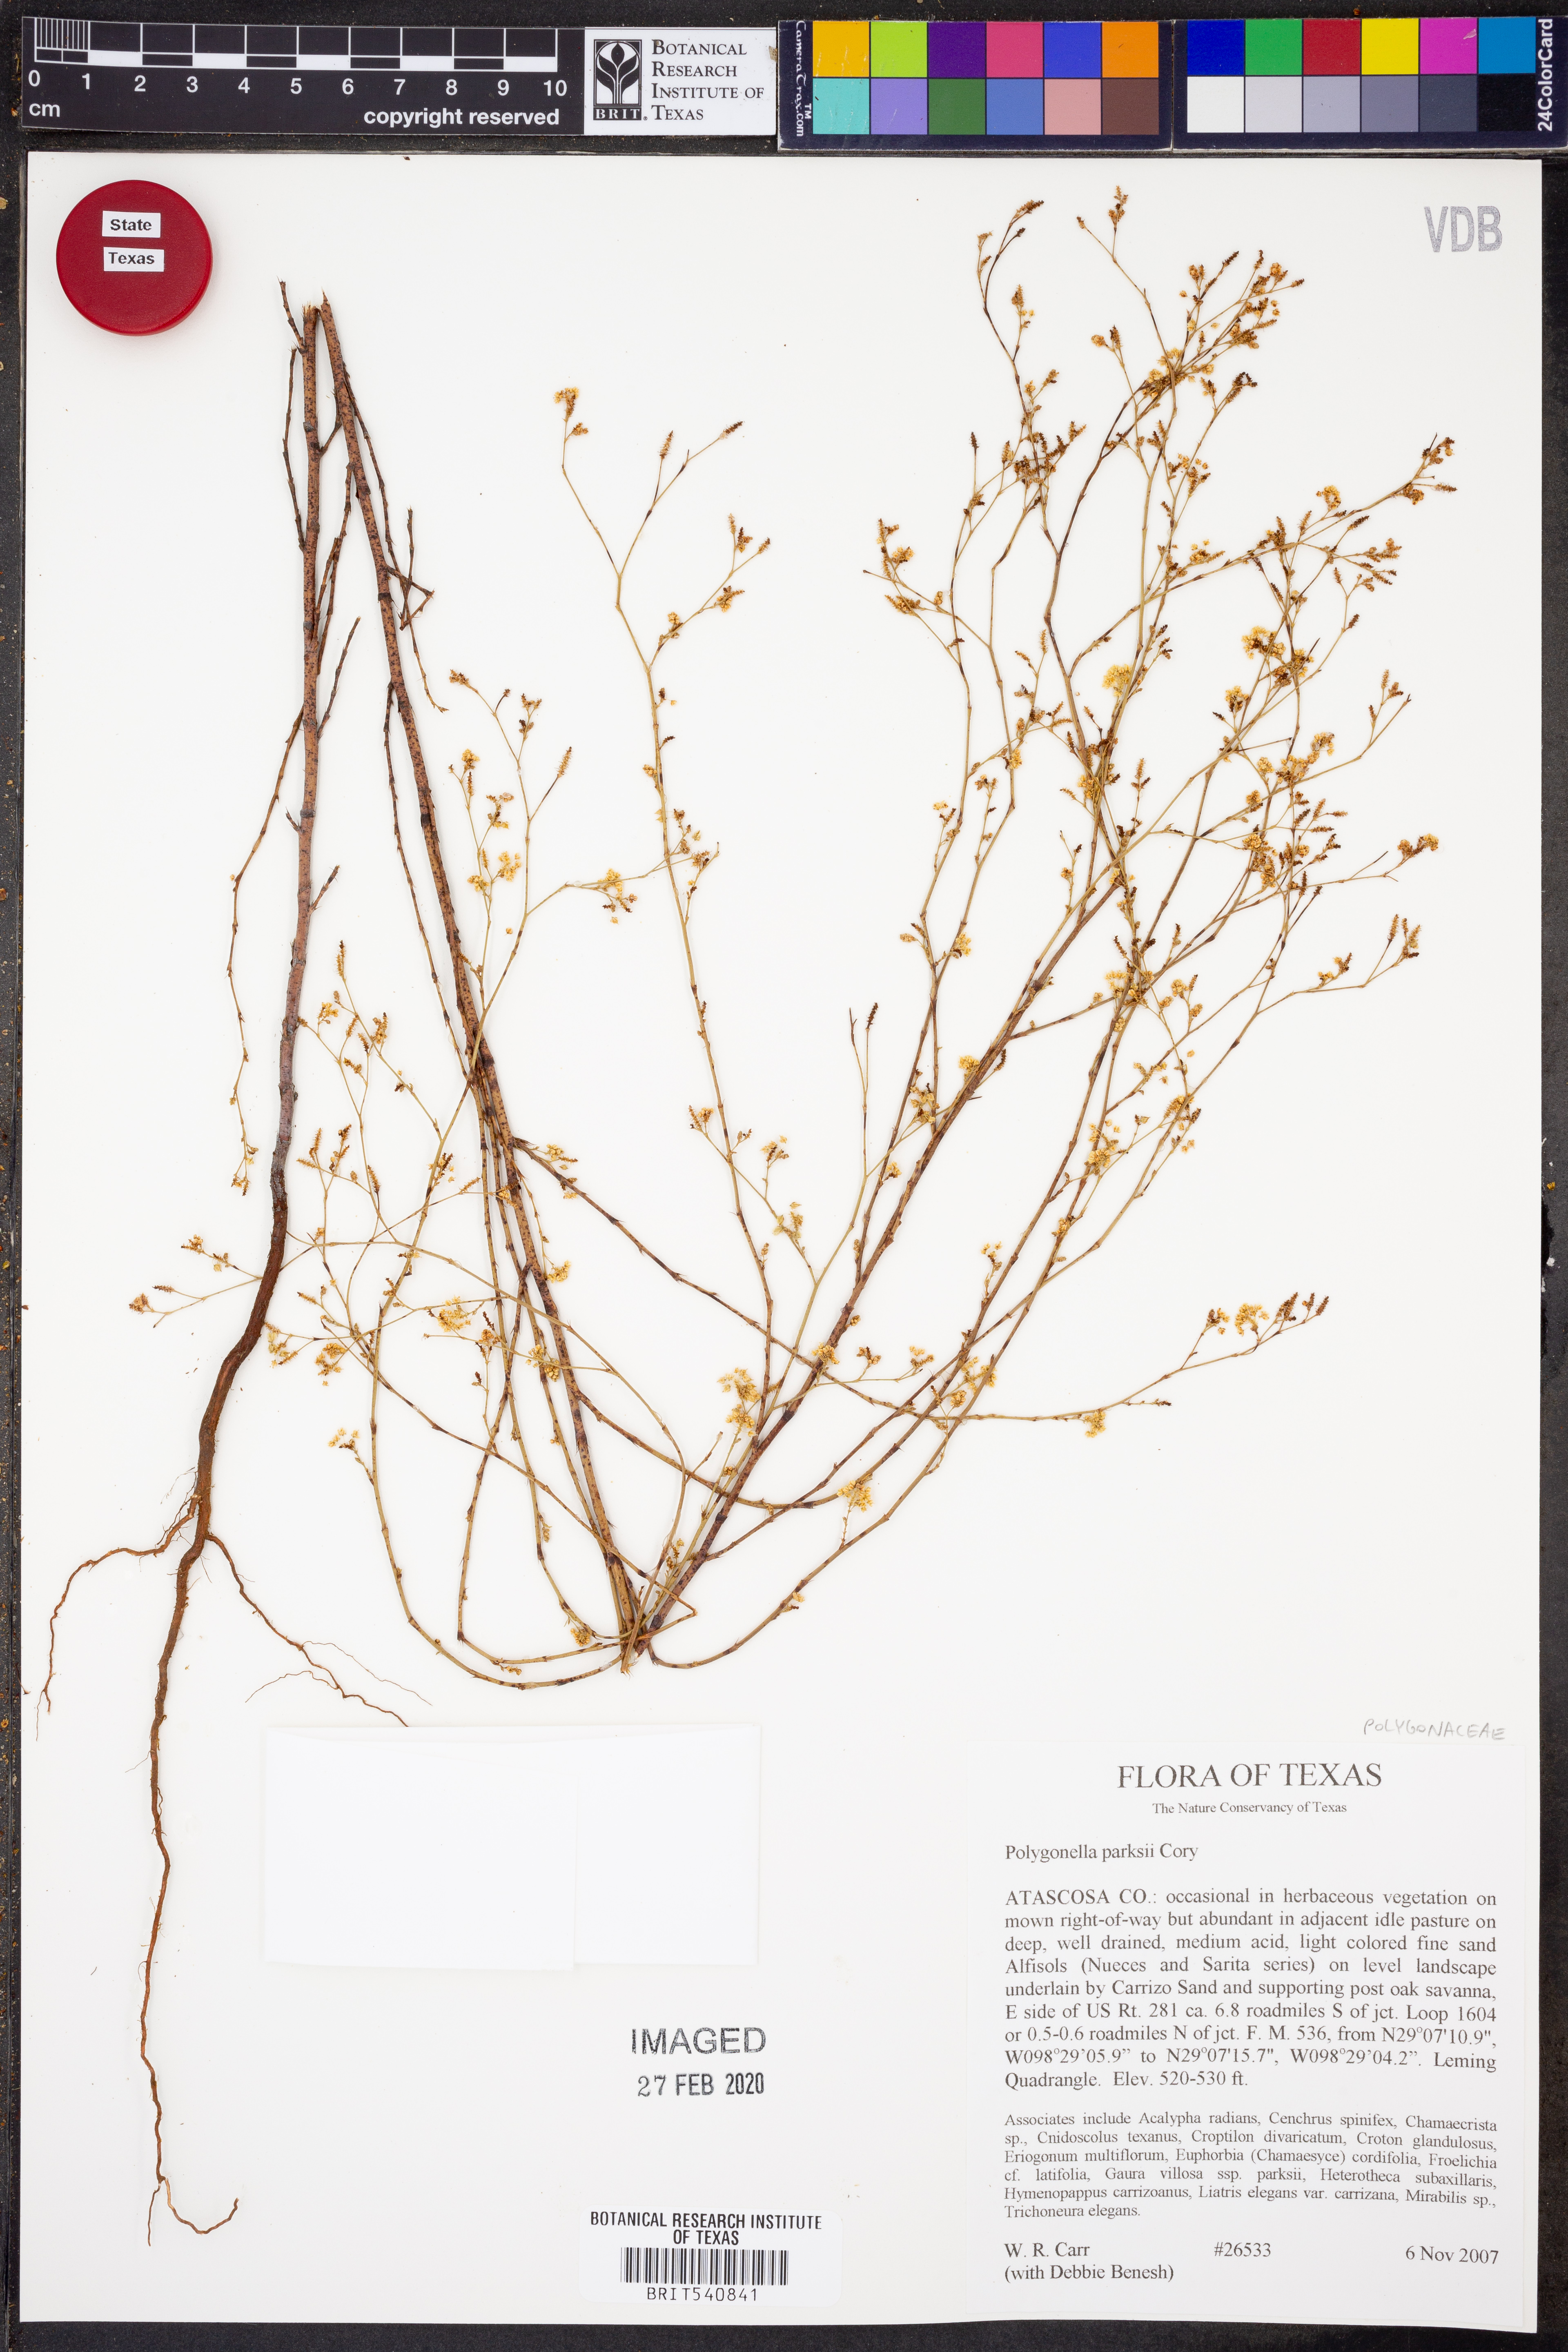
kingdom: Plantae
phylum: Tracheophyta
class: Magnoliopsida
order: Caryophyllales
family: Polygonaceae
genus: Polygonella
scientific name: Polygonella parksii
